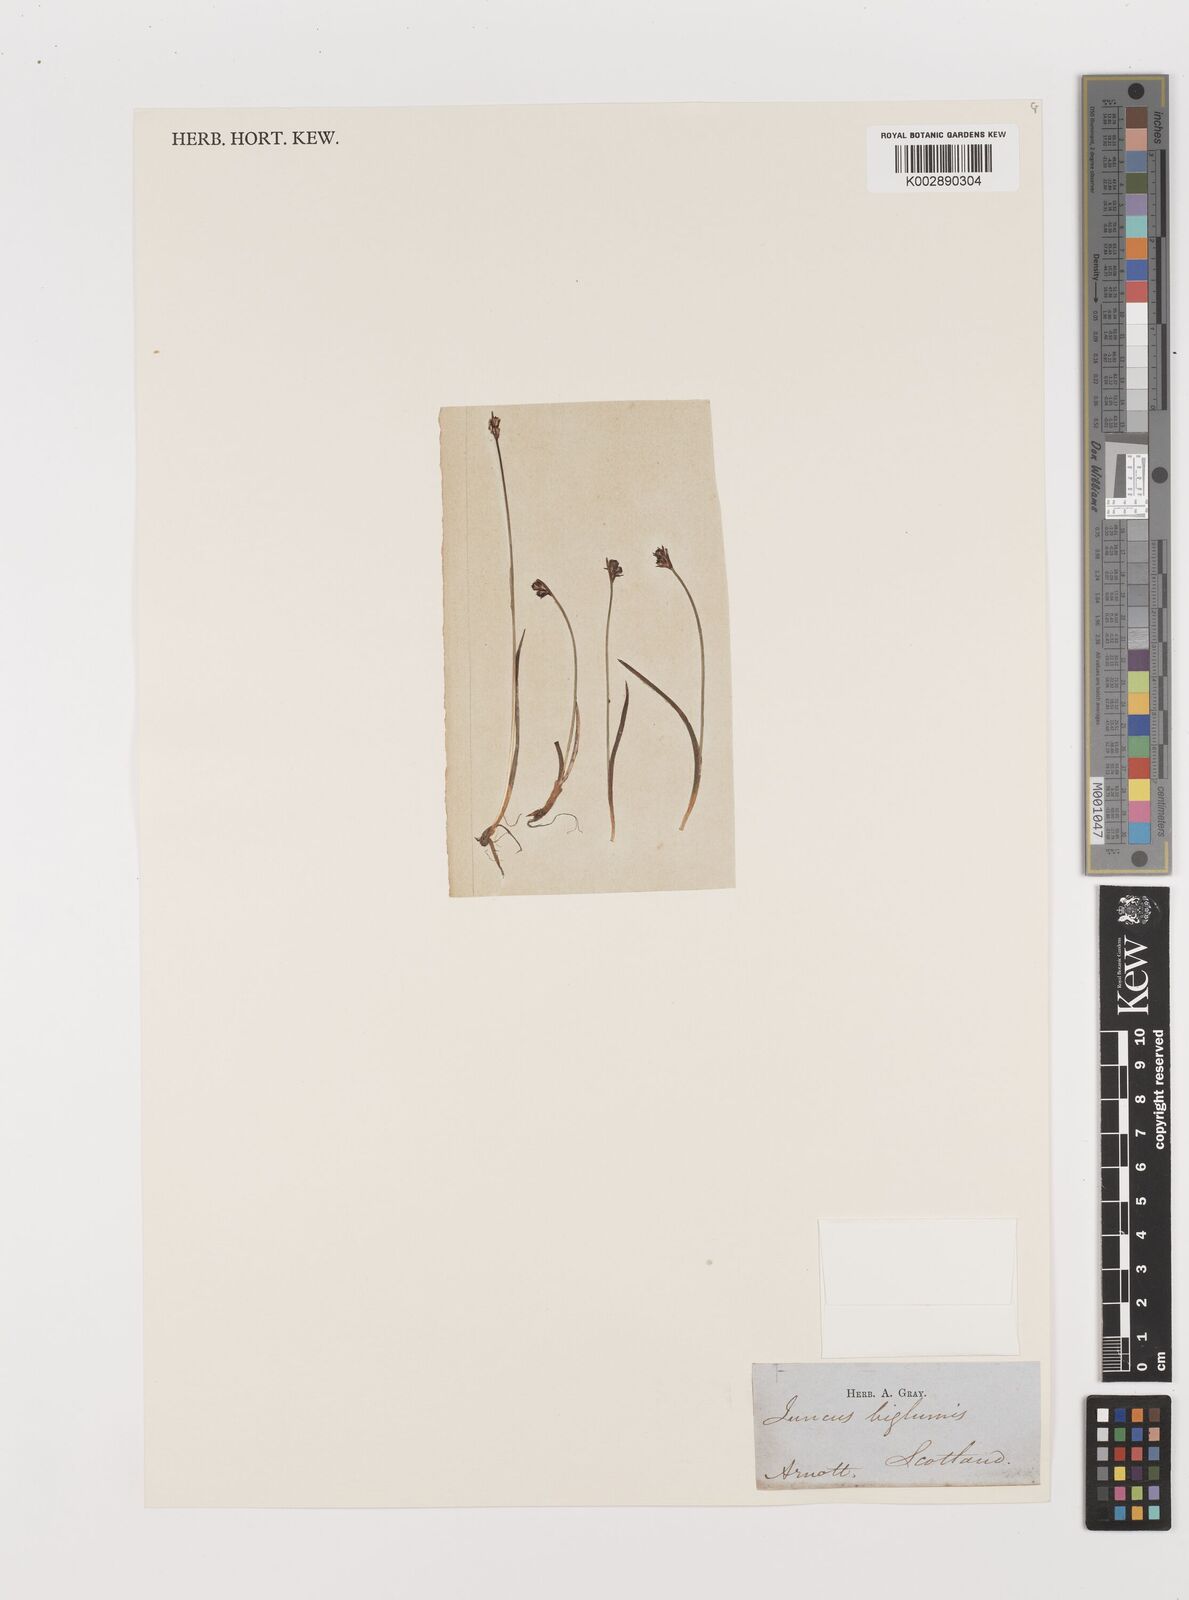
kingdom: Plantae
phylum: Tracheophyta
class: Liliopsida
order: Poales
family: Juncaceae
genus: Juncus
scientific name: Juncus biglumis
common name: Two-flowered rush
